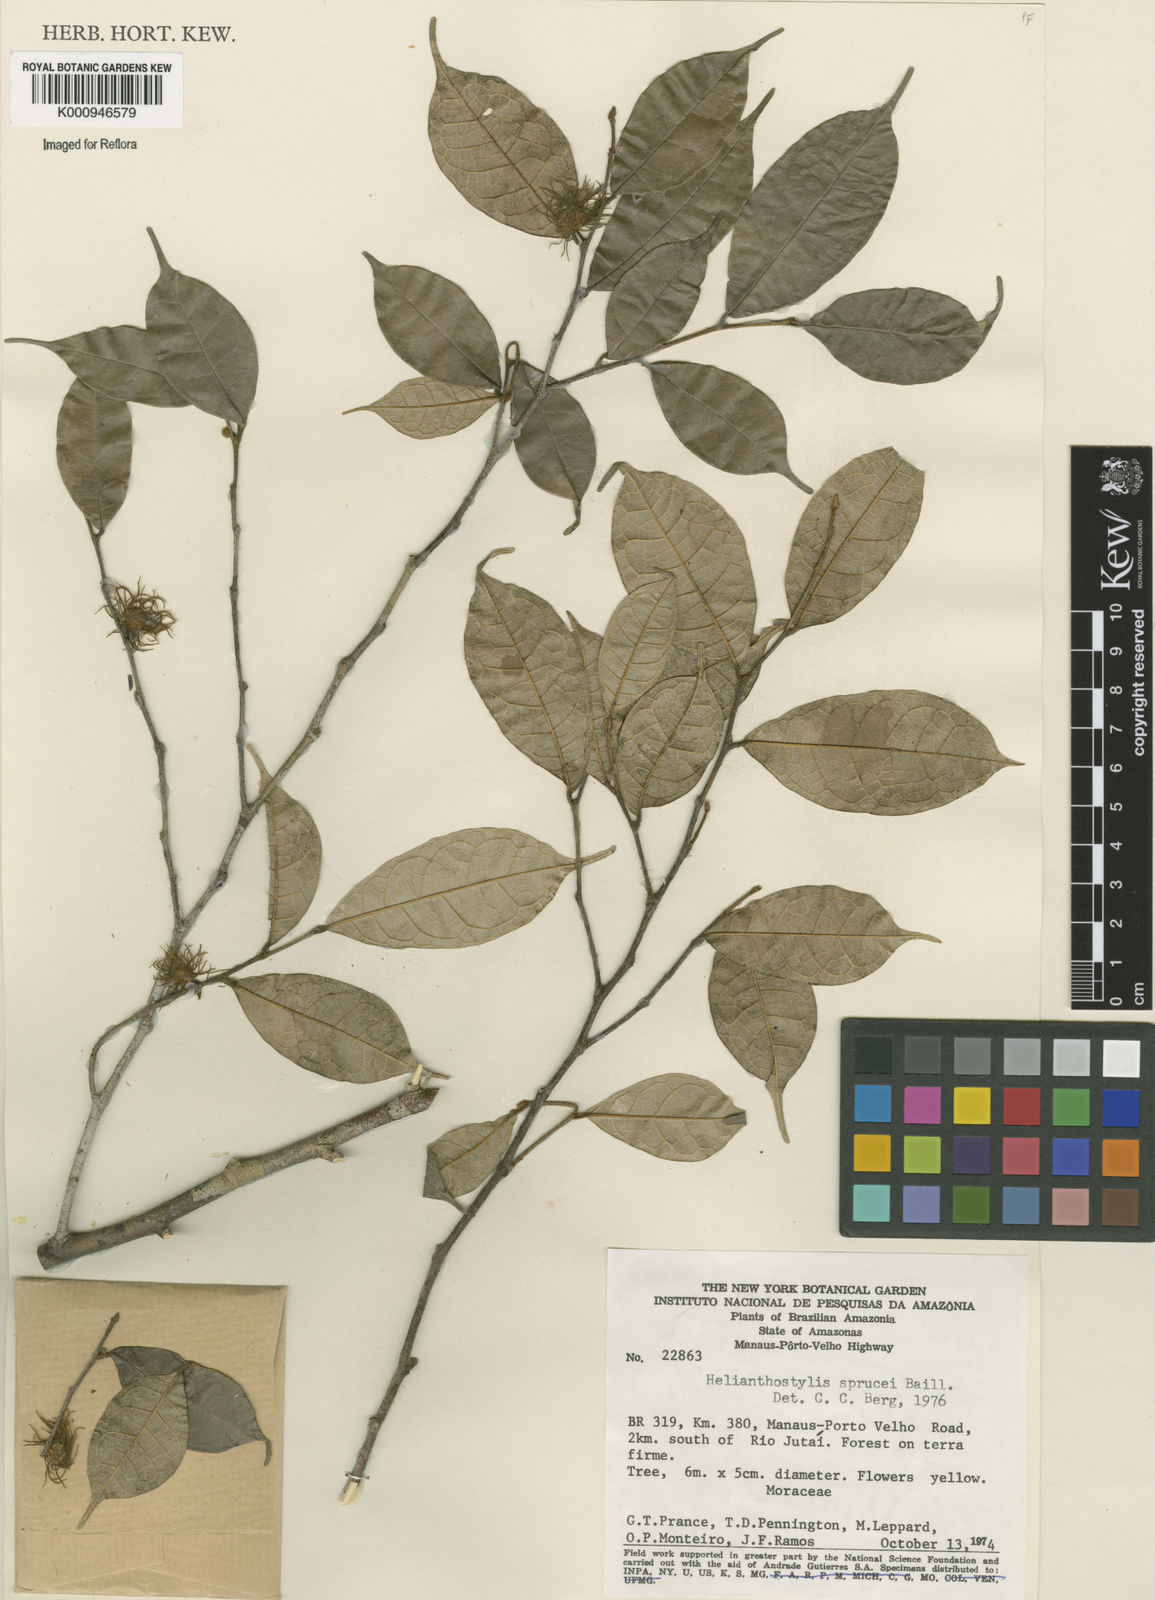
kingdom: Plantae
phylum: Tracheophyta
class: Magnoliopsida
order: Rosales
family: Moraceae
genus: Brosimum
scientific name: Brosimum sprucei
